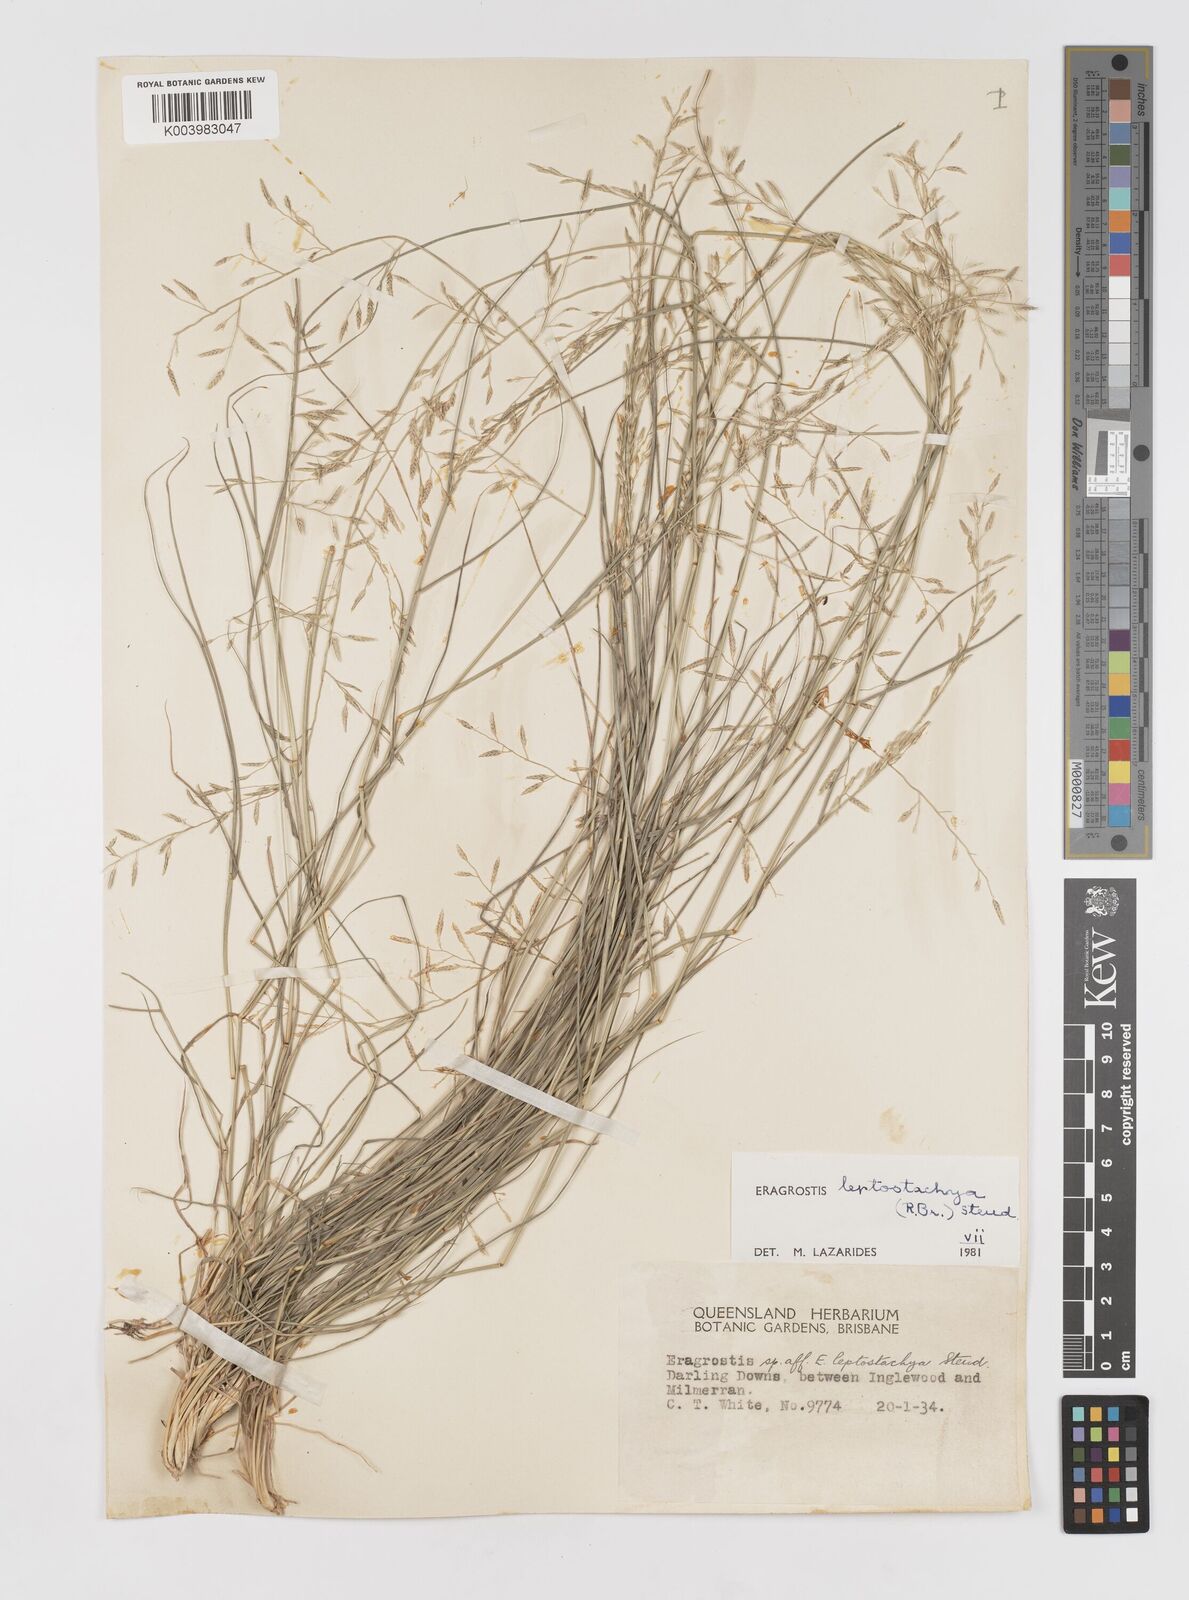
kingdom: Plantae
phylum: Tracheophyta
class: Liliopsida
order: Poales
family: Poaceae
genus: Eragrostis
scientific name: Eragrostis leptostachya
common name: Australian lovegrass
